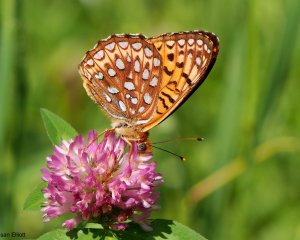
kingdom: Animalia
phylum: Arthropoda
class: Insecta
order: Lepidoptera
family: Nymphalidae
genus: Speyeria
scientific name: Speyeria atlantis
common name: Atlantis Fritillary
